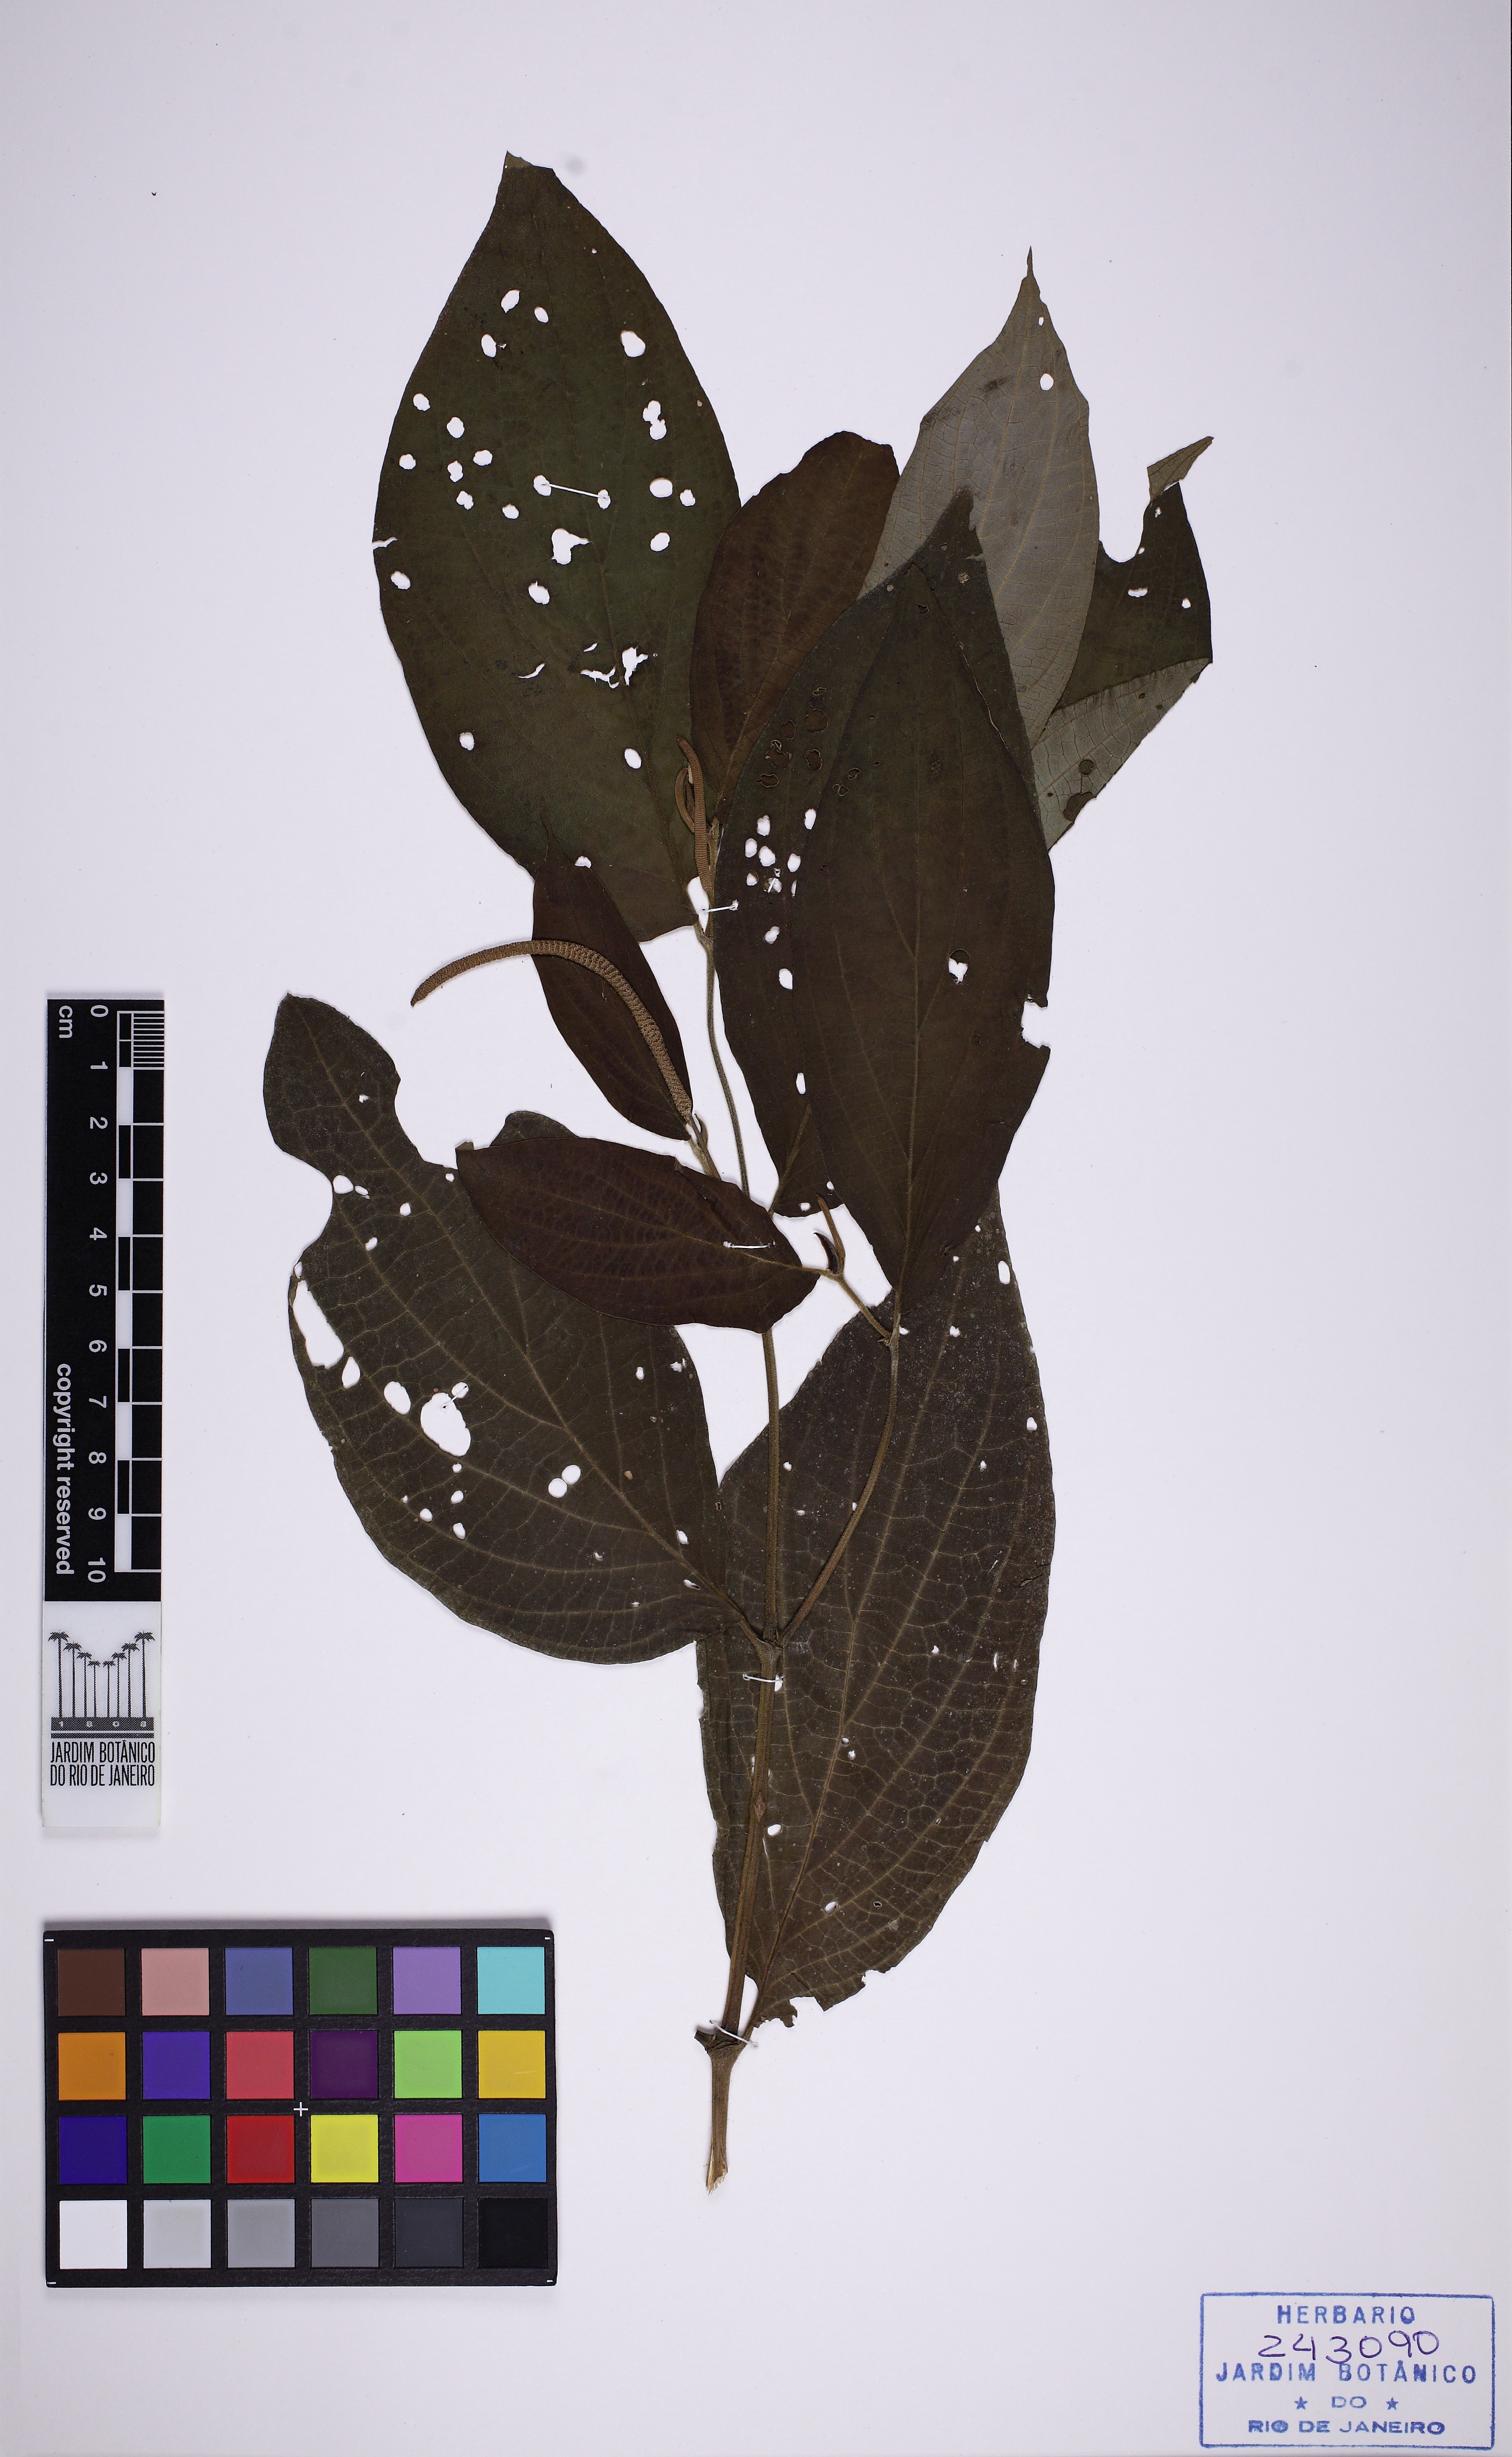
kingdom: Plantae
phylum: Tracheophyta
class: Magnoliopsida
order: Piperales
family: Piperaceae
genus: Piper
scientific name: Piper gaudichaudianum
